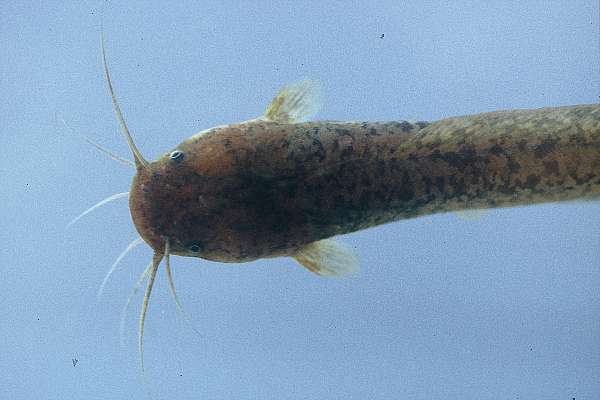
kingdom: Animalia
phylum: Chordata
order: Siluriformes
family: Clariidae
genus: Clarias
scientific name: Clarias liocephalus
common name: Smooth-head catfish
